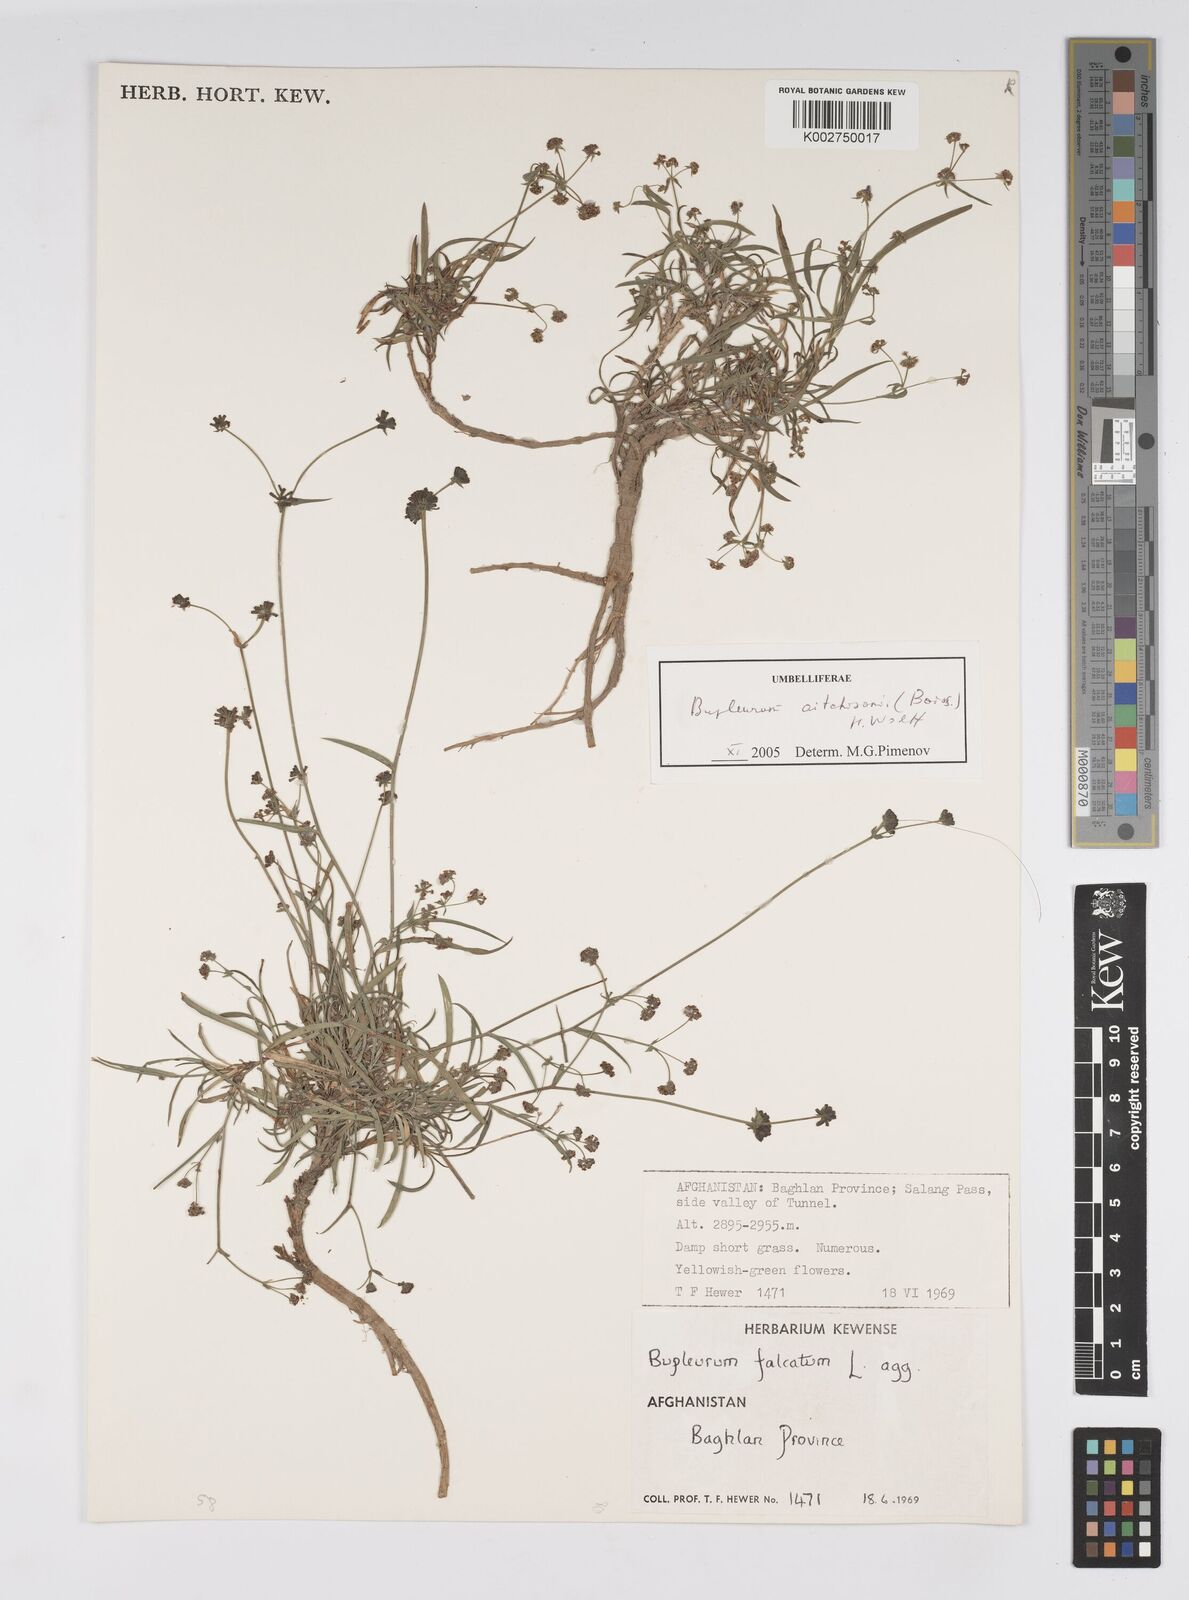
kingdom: Plantae
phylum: Tracheophyta
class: Magnoliopsida
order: Apiales
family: Apiaceae
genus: Bupleurum
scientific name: Bupleurum aitchisonii
